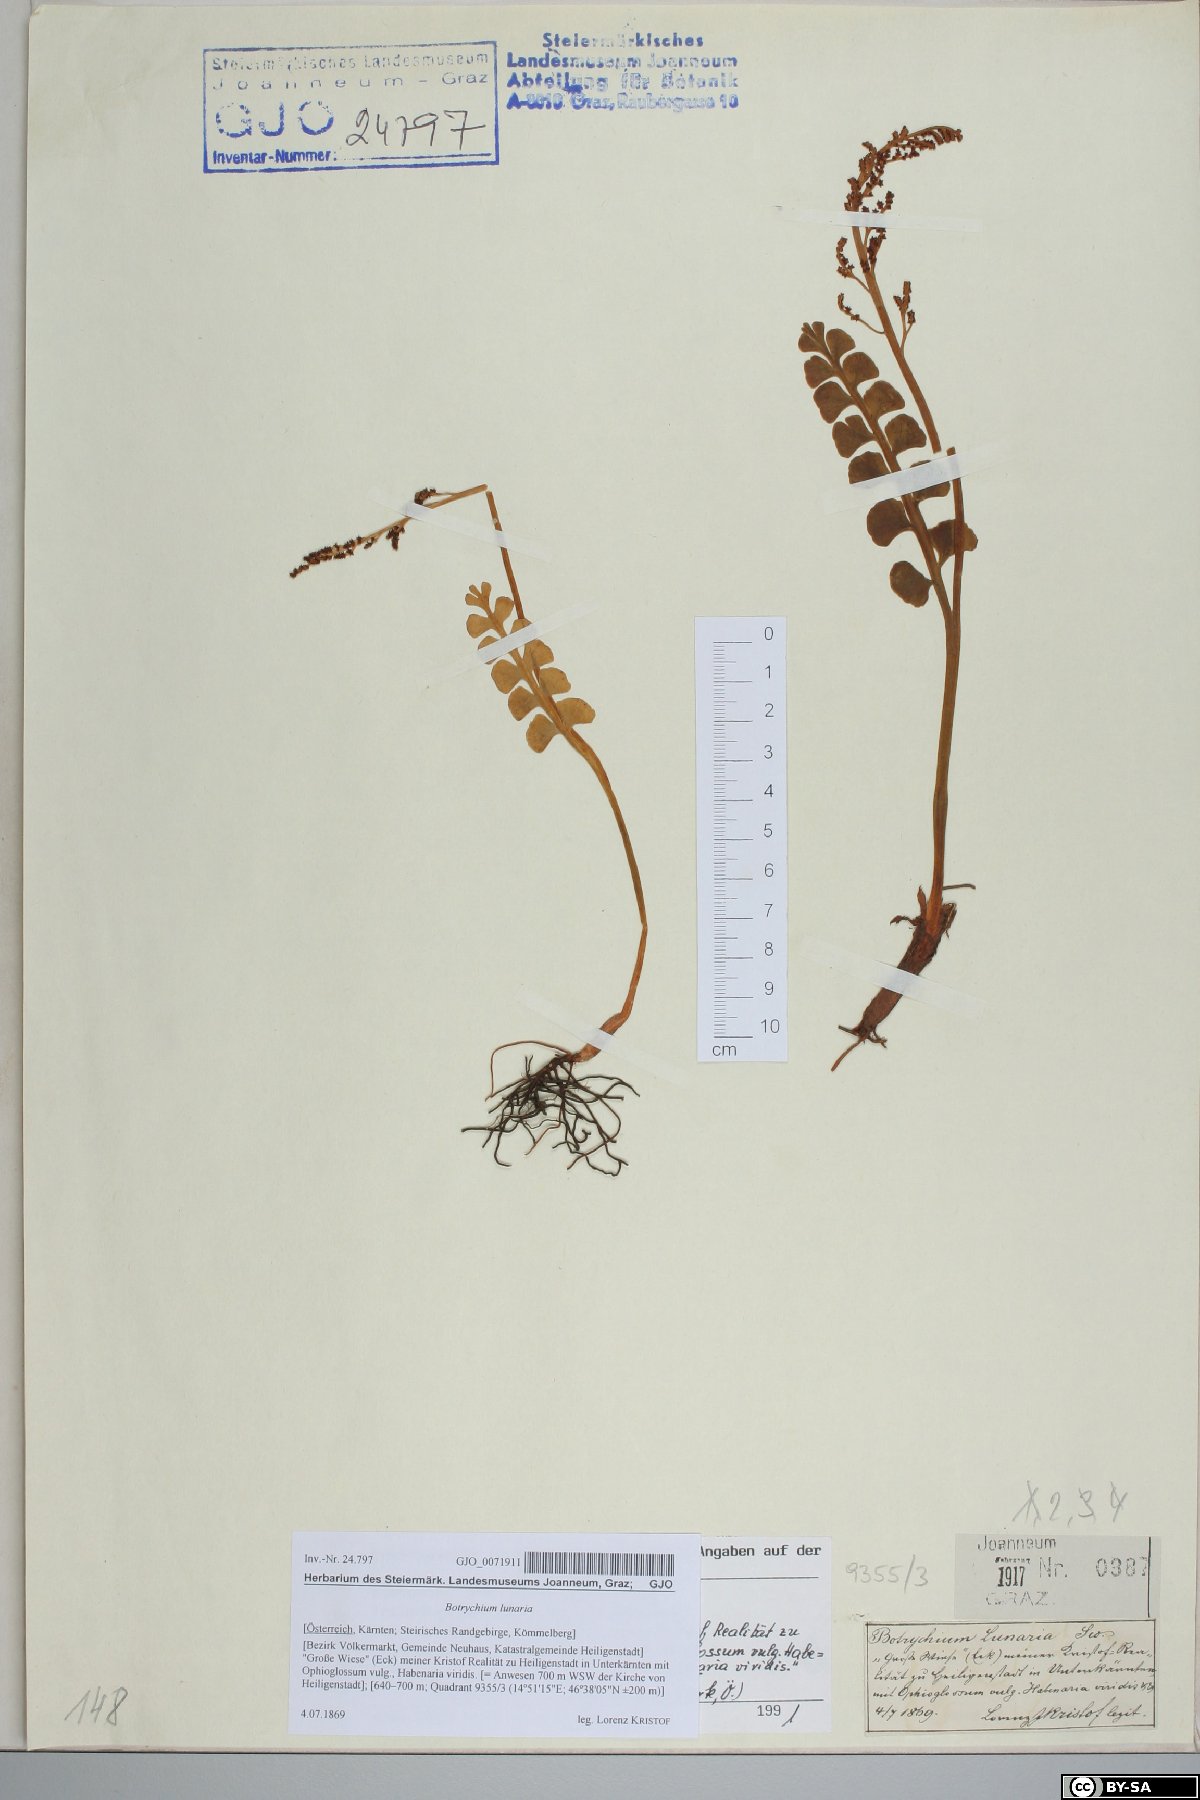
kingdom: Plantae
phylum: Tracheophyta
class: Polypodiopsida
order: Ophioglossales
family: Ophioglossaceae
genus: Botrychium
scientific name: Botrychium lunaria
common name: Moonwort
